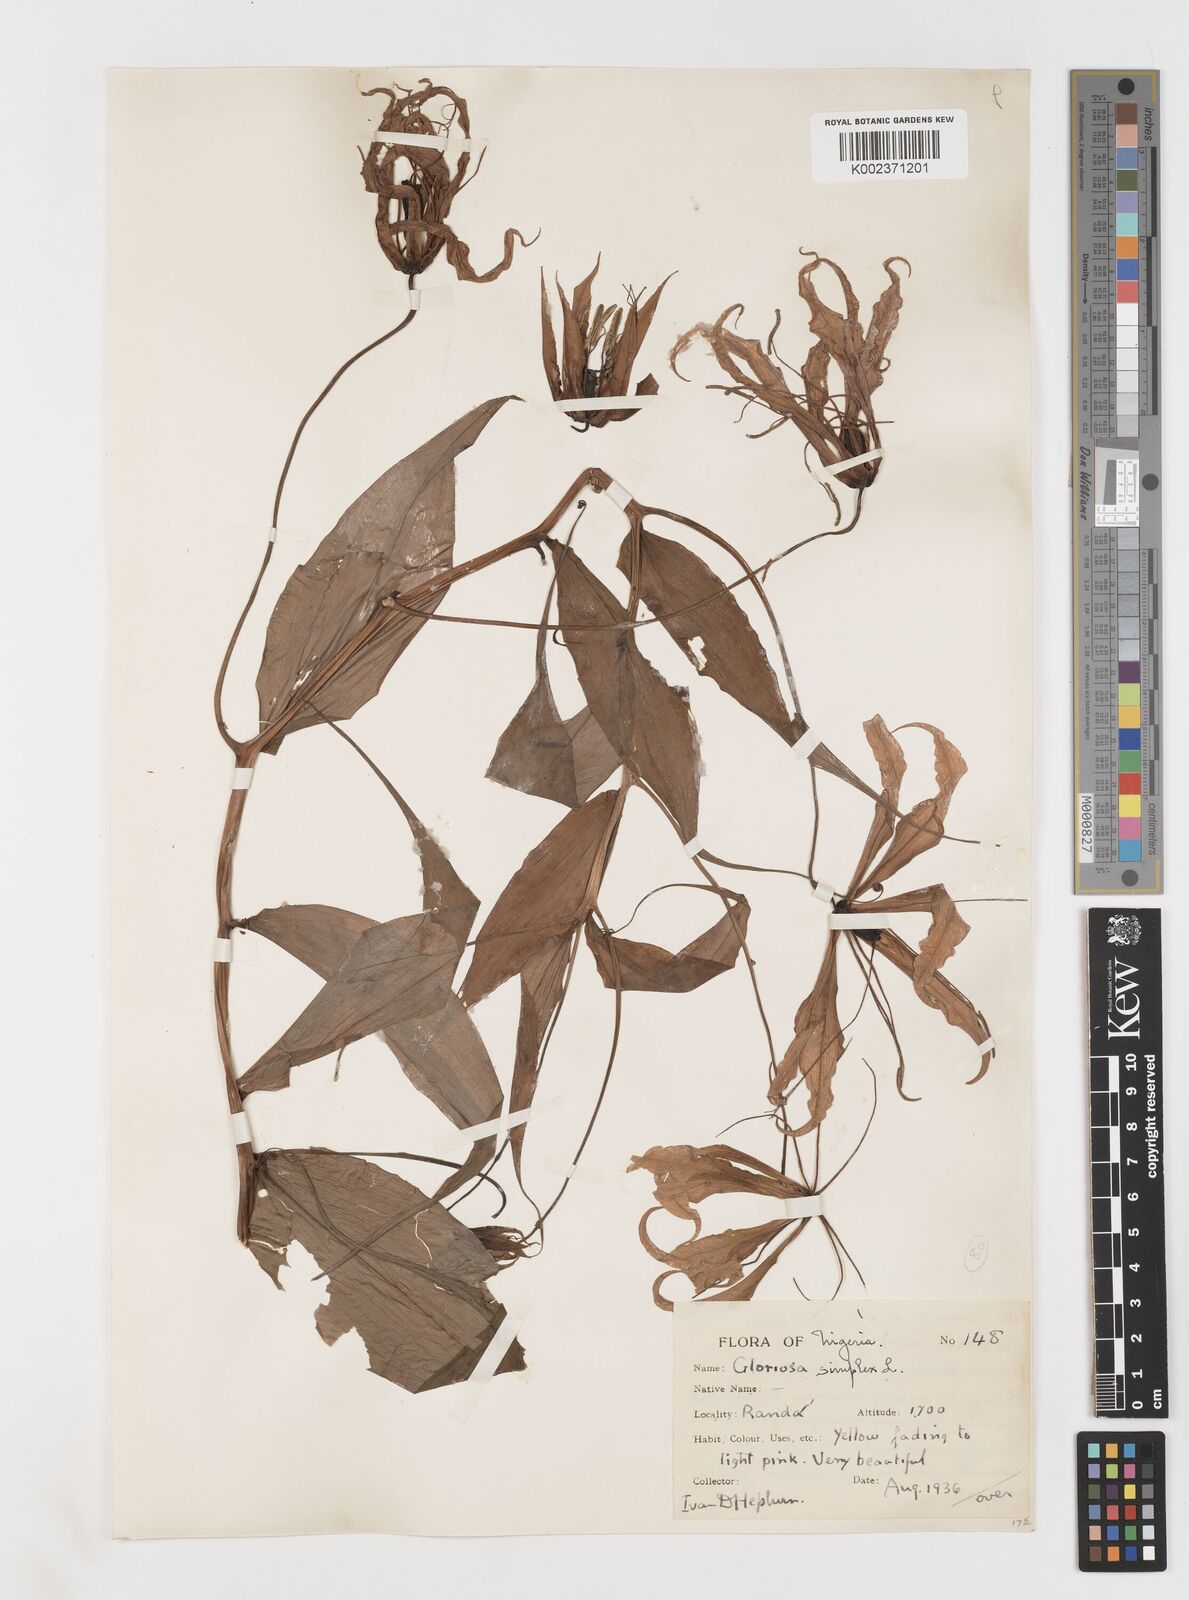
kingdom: Plantae
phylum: Tracheophyta
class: Liliopsida
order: Liliales
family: Colchicaceae
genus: Gloriosa
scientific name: Gloriosa simplex
